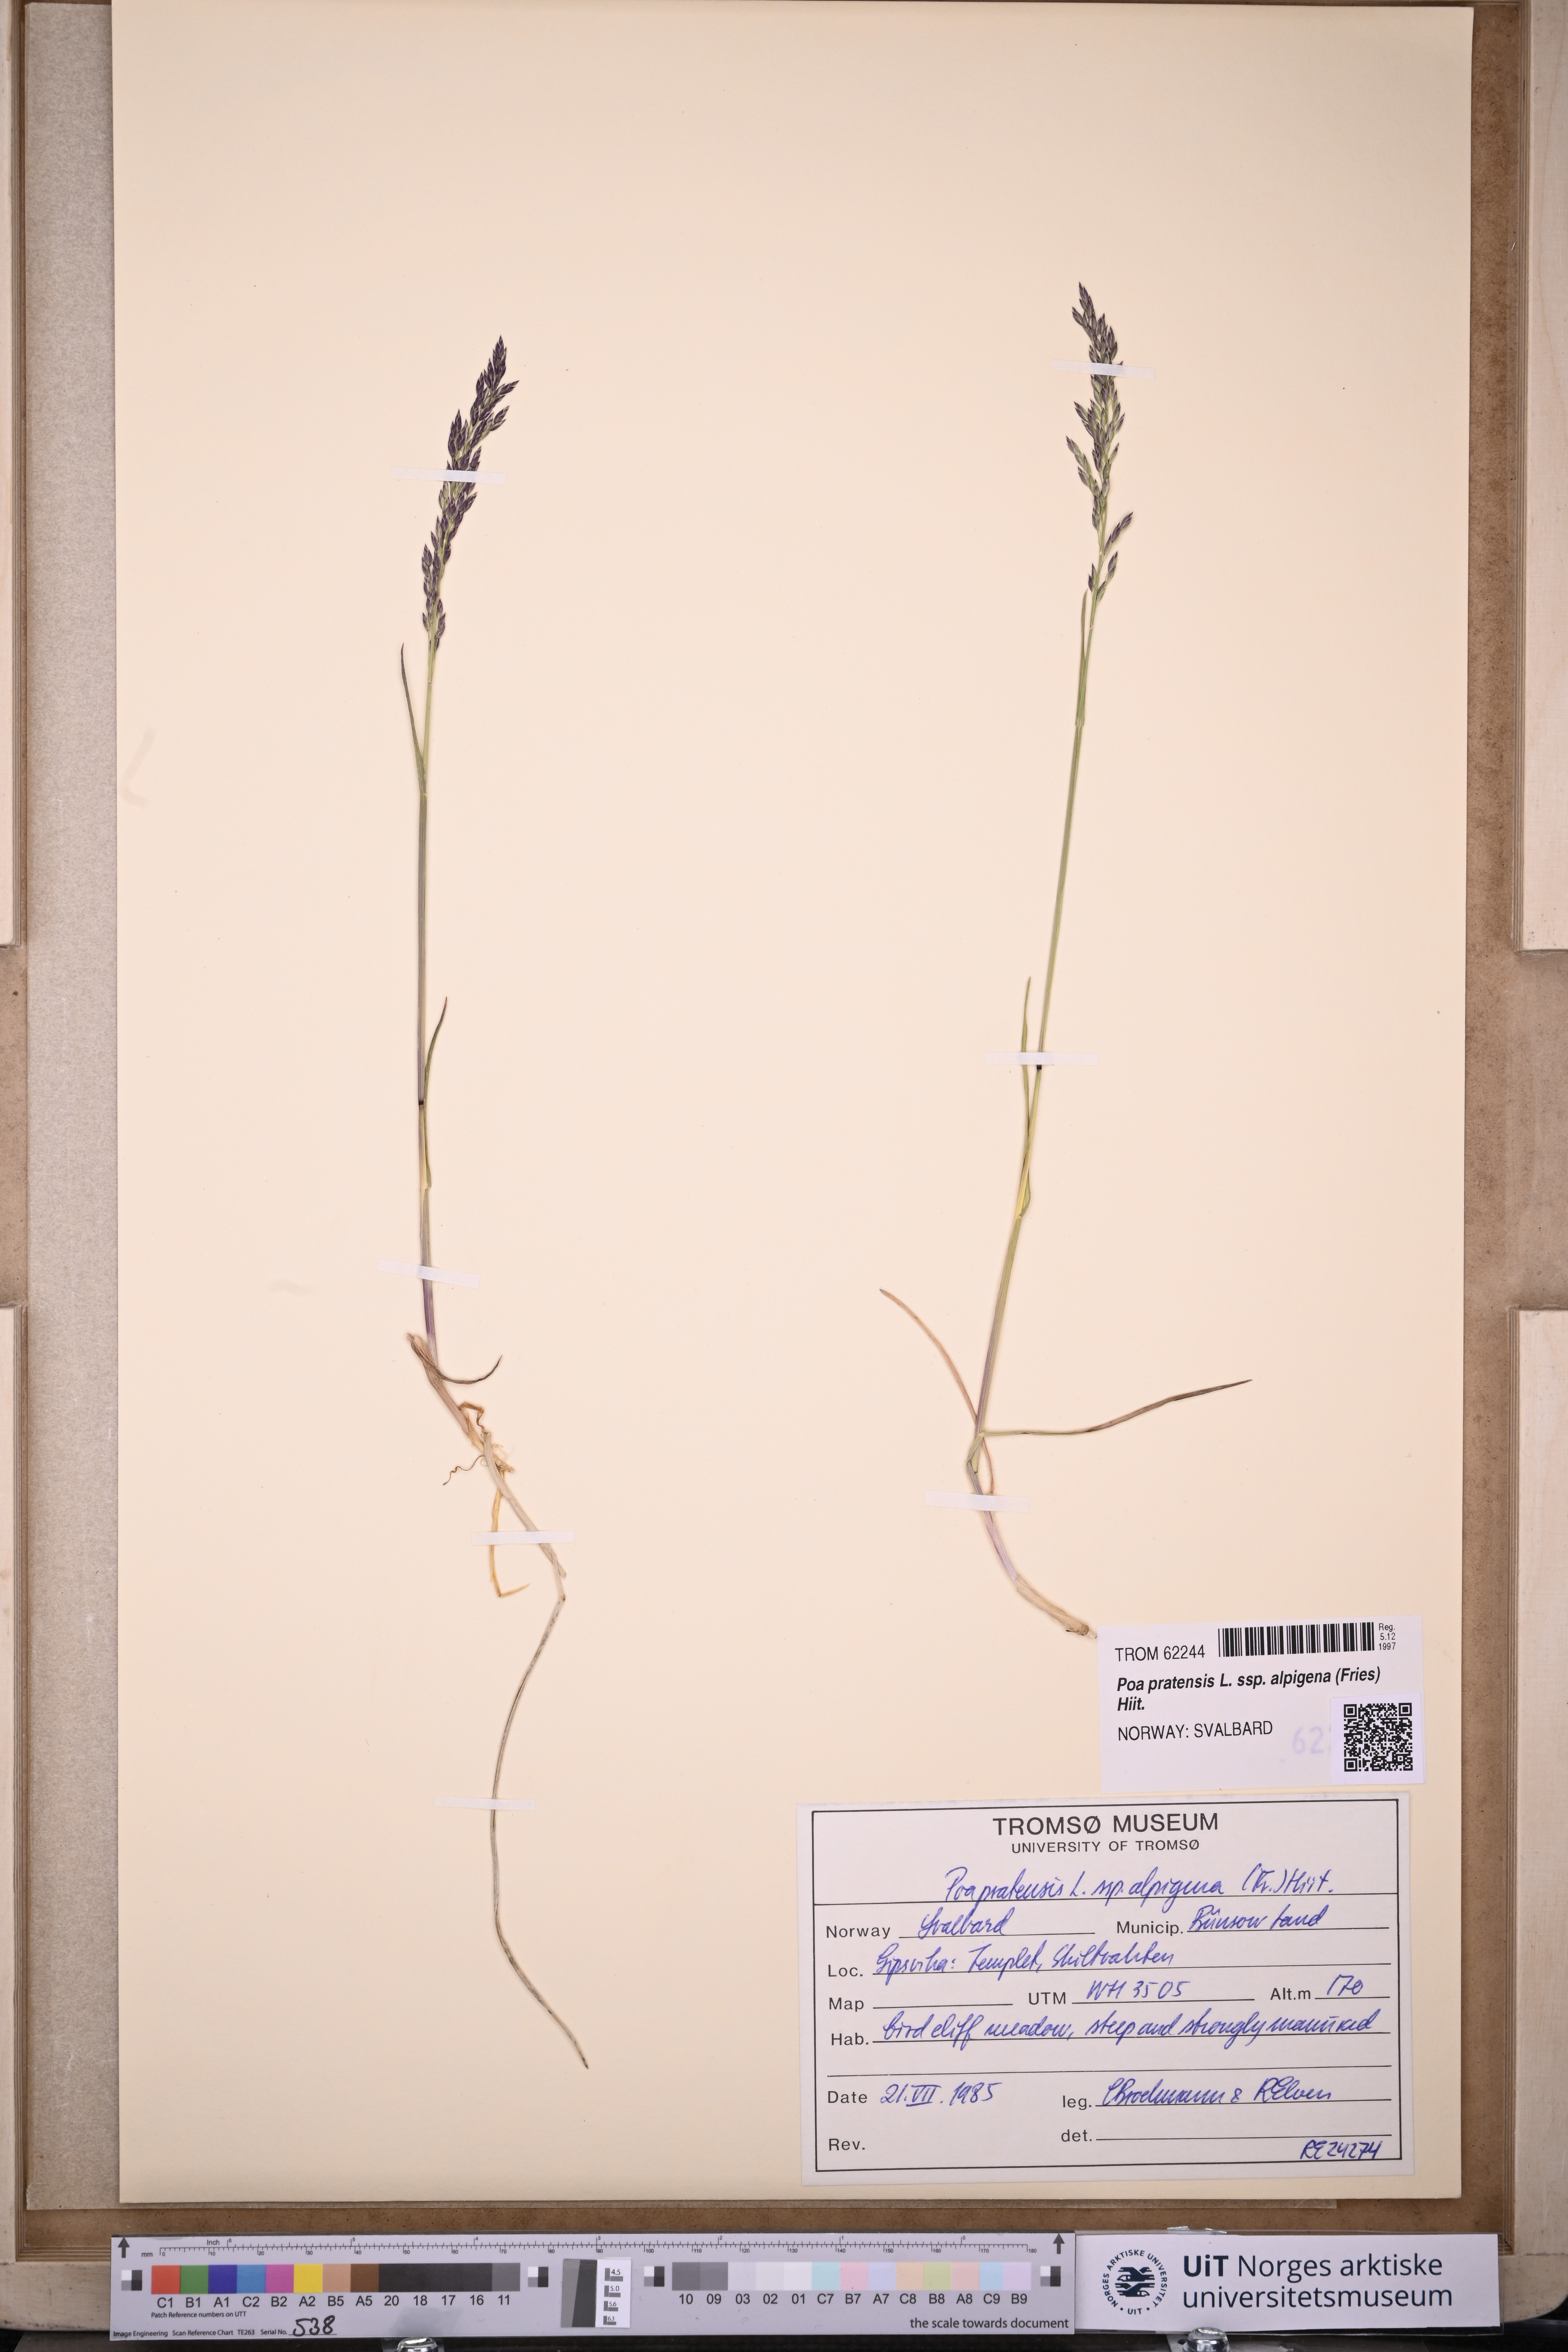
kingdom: Plantae
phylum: Tracheophyta
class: Liliopsida
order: Poales
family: Poaceae
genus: Poa
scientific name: Poa alpigena
